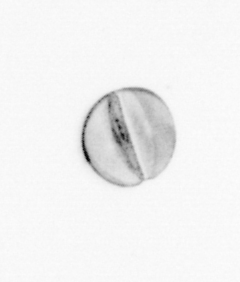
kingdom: Chromista
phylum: Ochrophyta
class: Bacillariophyceae
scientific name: Bacillariophyceae
